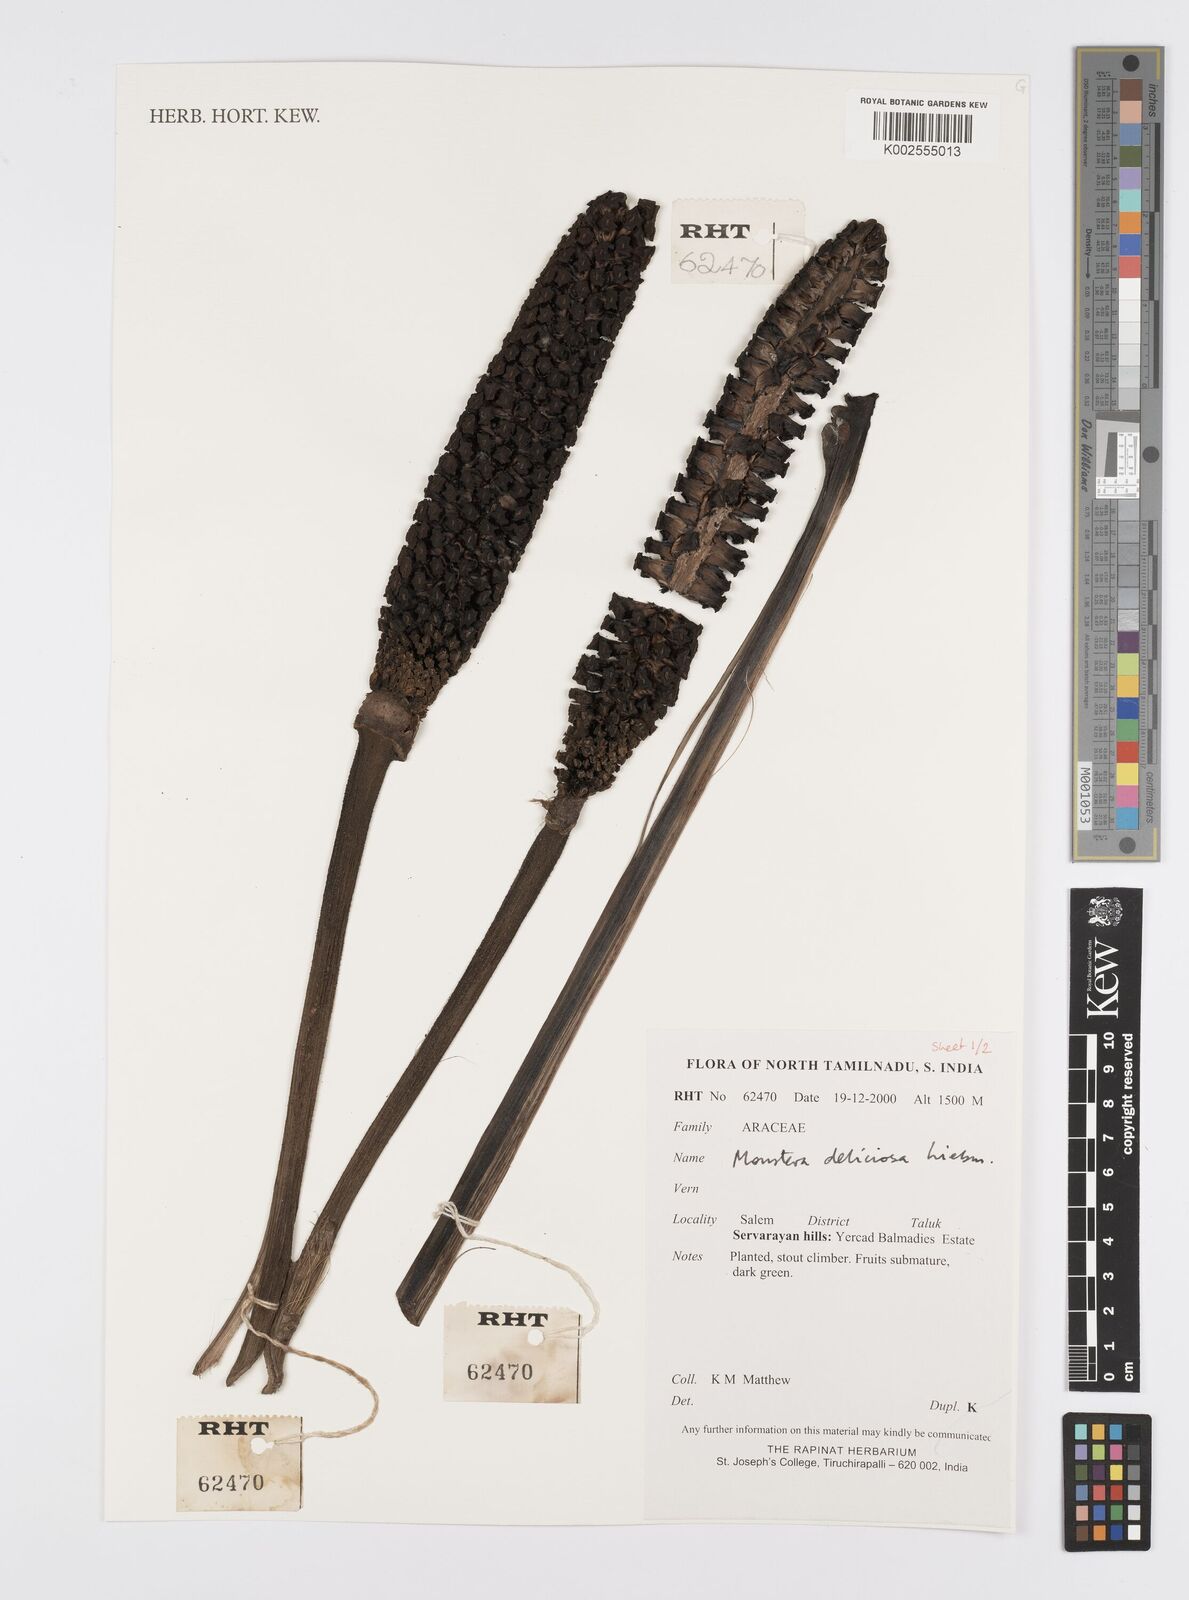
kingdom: Plantae
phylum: Tracheophyta
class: Liliopsida
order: Alismatales
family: Araceae
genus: Monstera
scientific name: Monstera deliciosa
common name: Cut-leaf-philodendron
